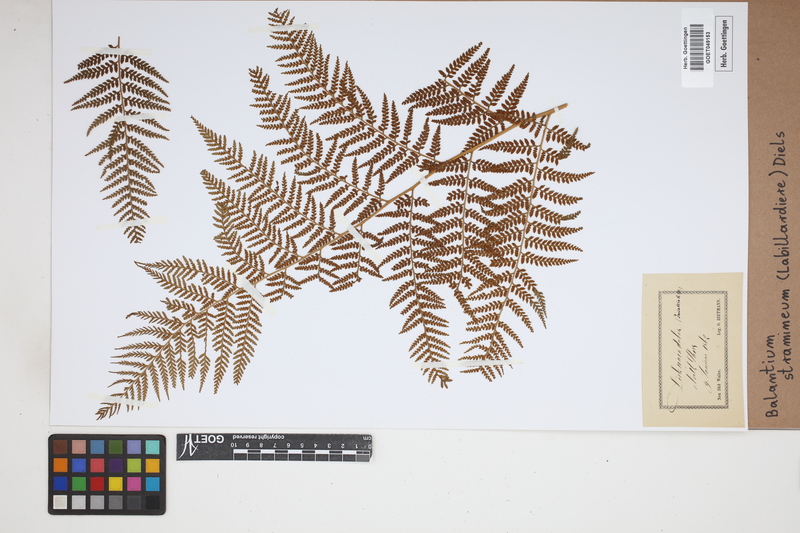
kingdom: Plantae
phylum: Tracheophyta
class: Polypodiopsida
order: Cyatheales
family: Dicksoniaceae
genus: Calochlaena
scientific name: Calochlaena straminea
